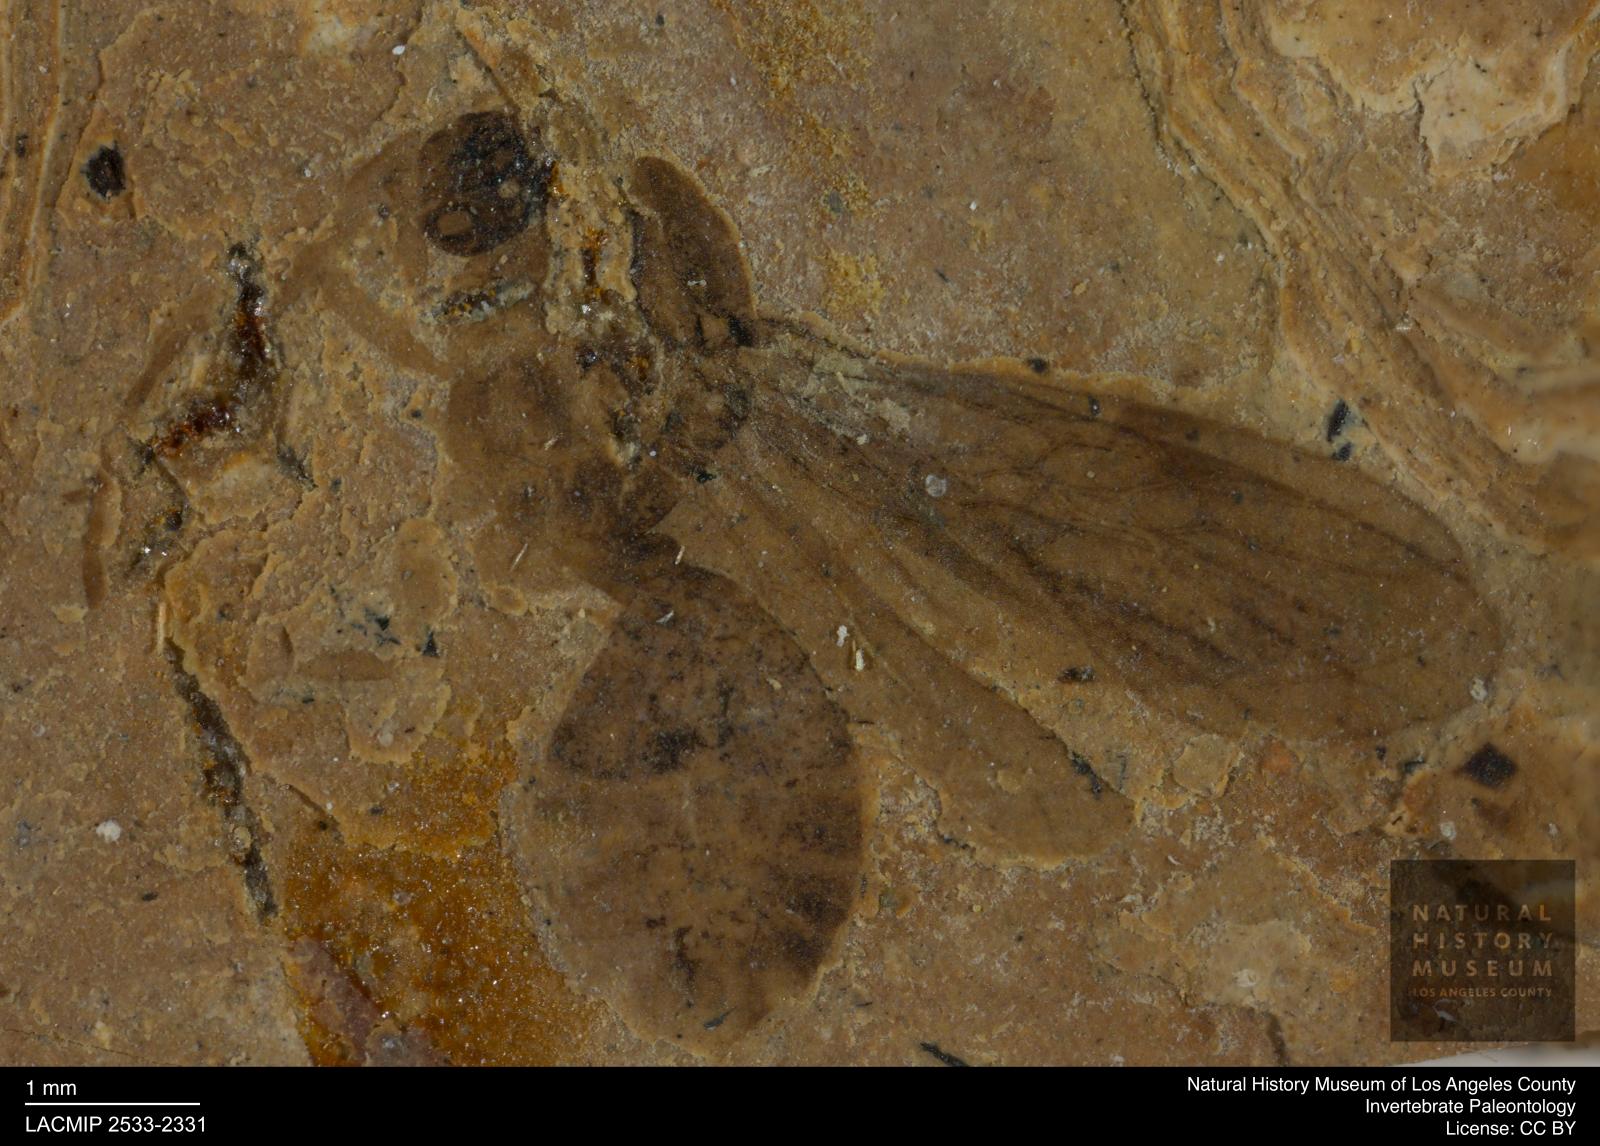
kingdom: Animalia
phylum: Arthropoda
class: Insecta
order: Hymenoptera
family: Formicidae
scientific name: Formicidae
